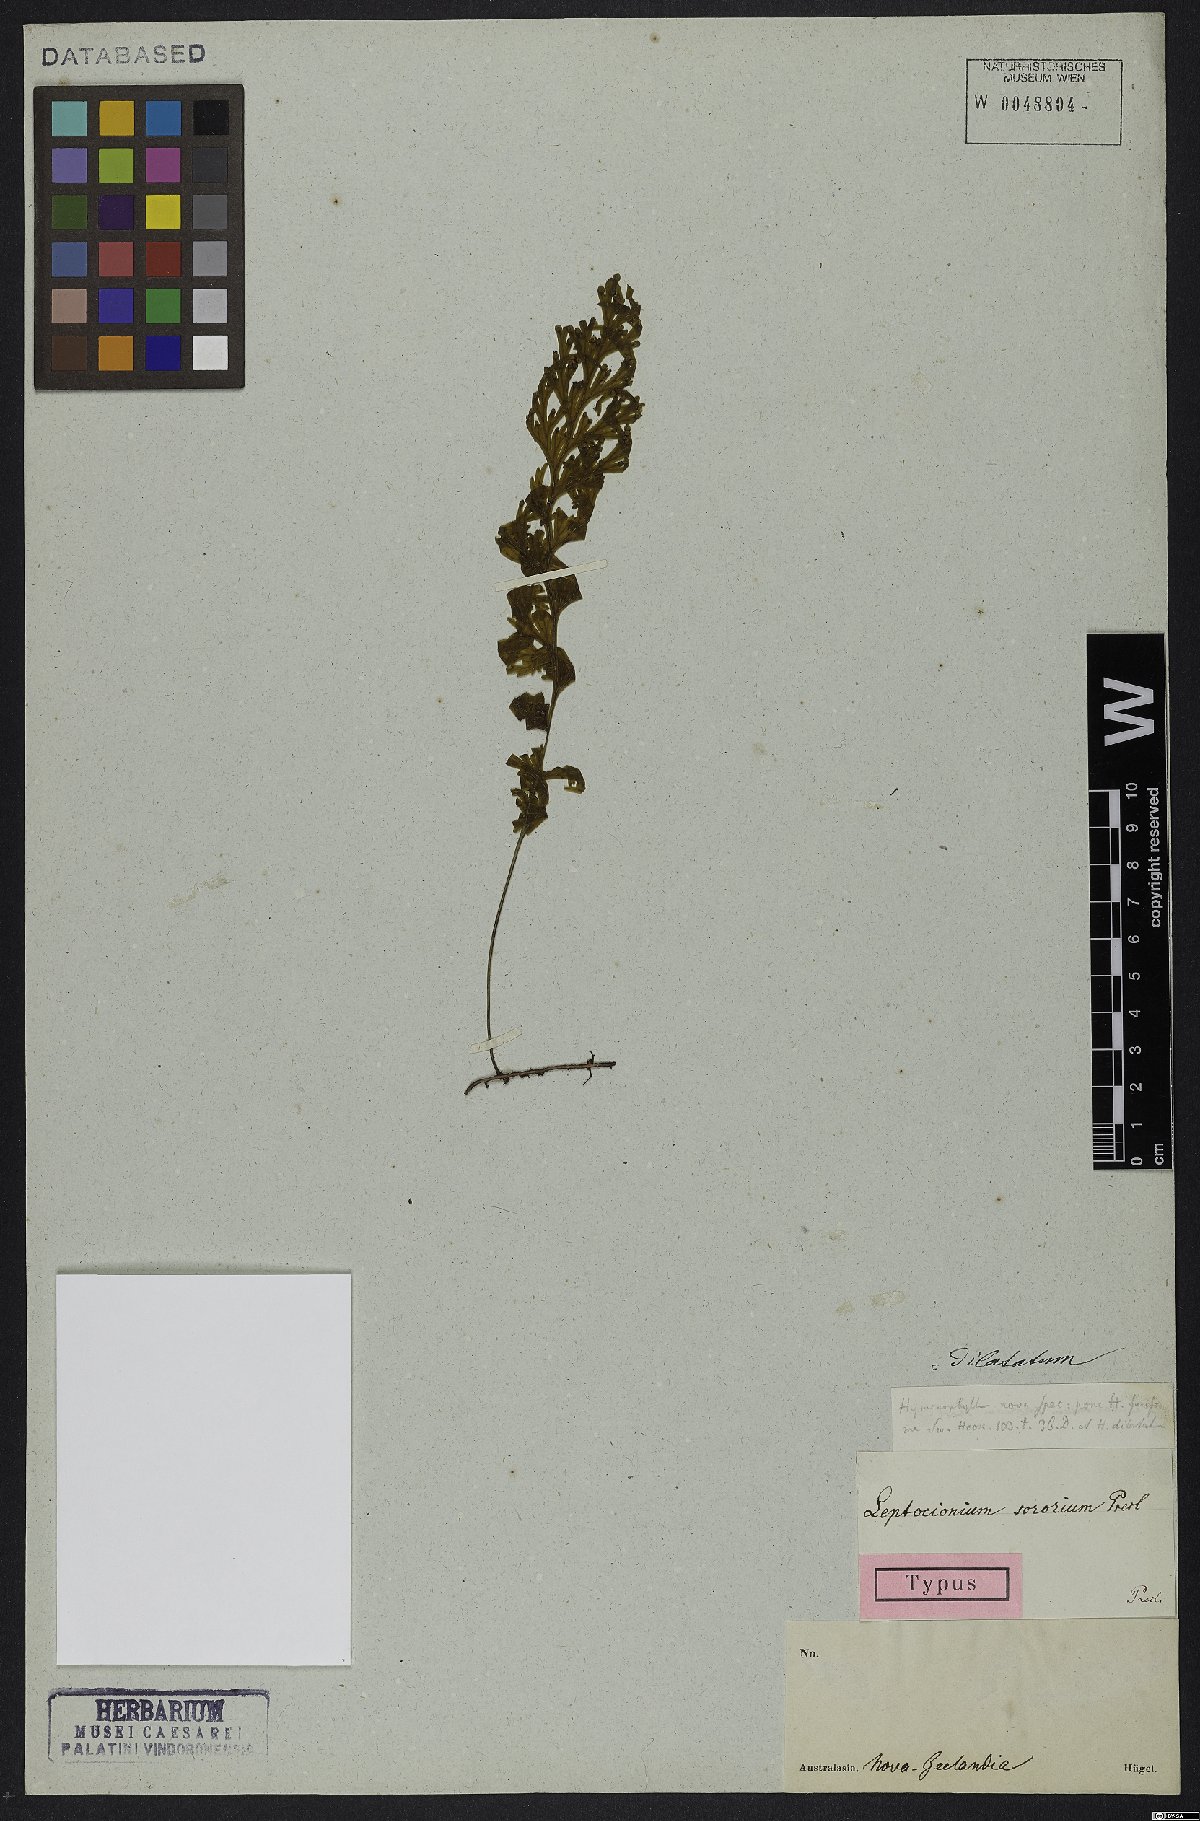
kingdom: Plantae
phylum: Tracheophyta
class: Polypodiopsida
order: Hymenophyllales
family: Hymenophyllaceae
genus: Hymenophyllum
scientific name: Hymenophyllum dilatatum
